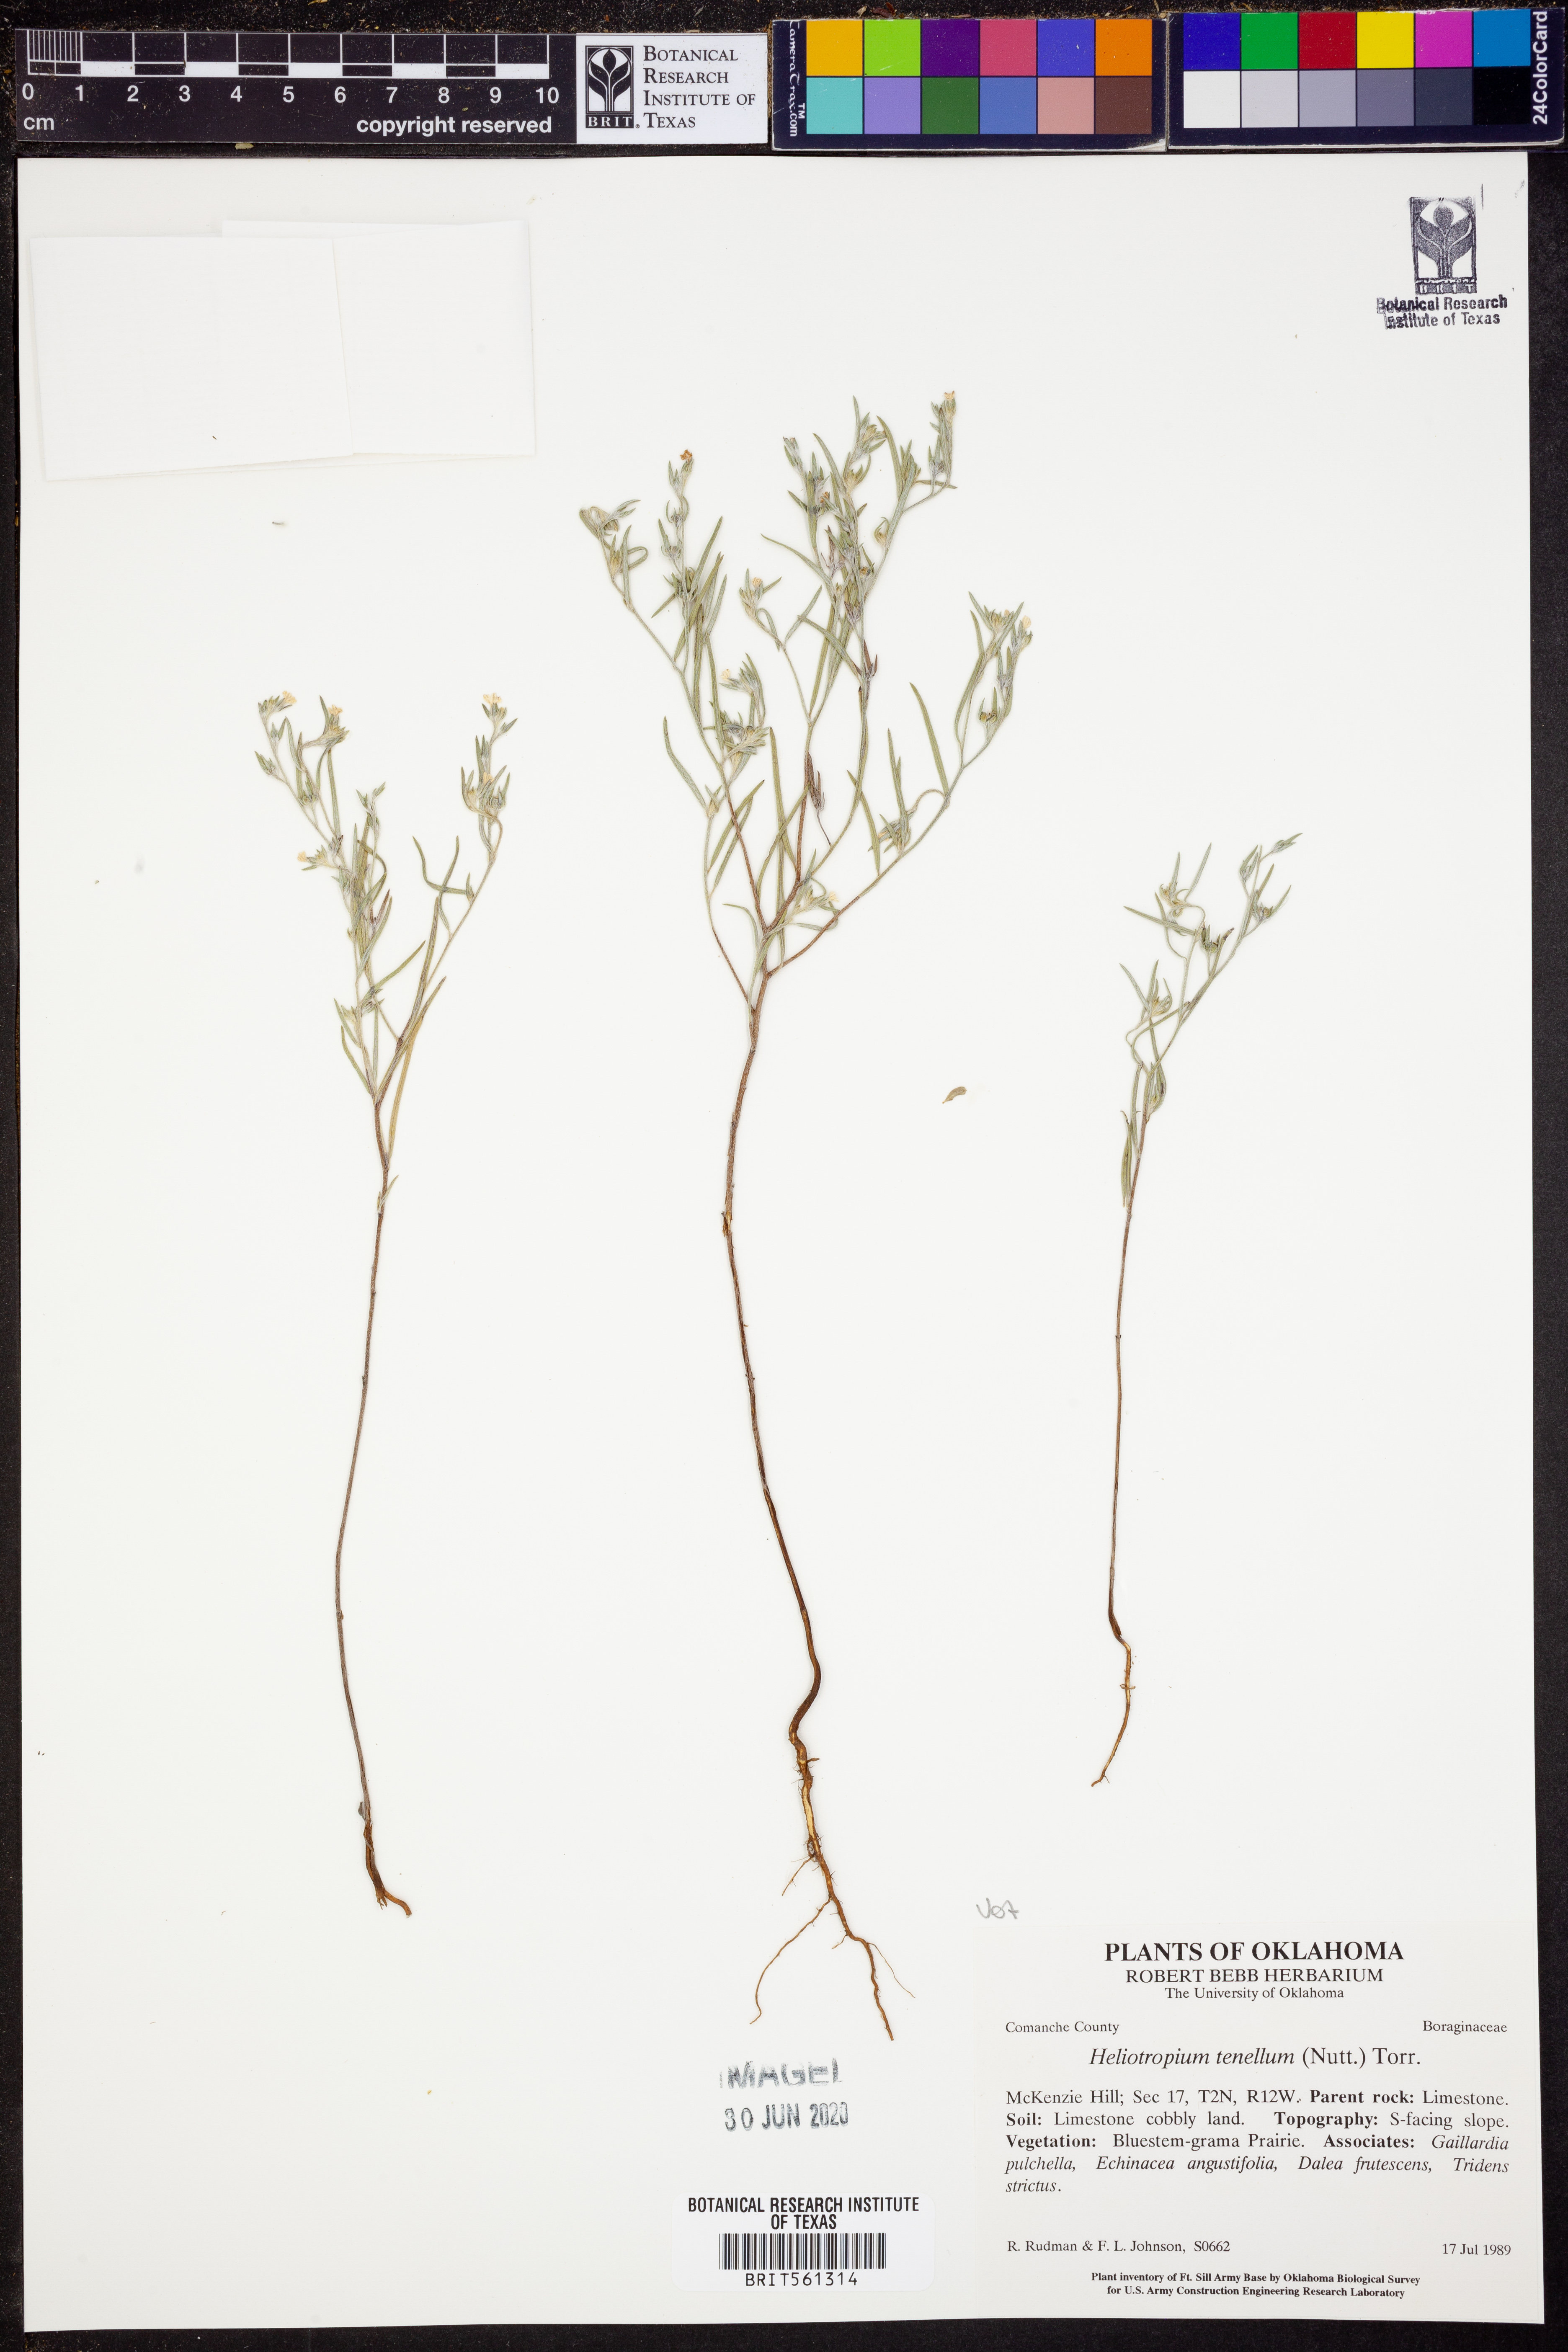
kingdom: Plantae
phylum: Tracheophyta
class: Magnoliopsida
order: Boraginales
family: Heliotropiaceae
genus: Euploca
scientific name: Euploca tenella
